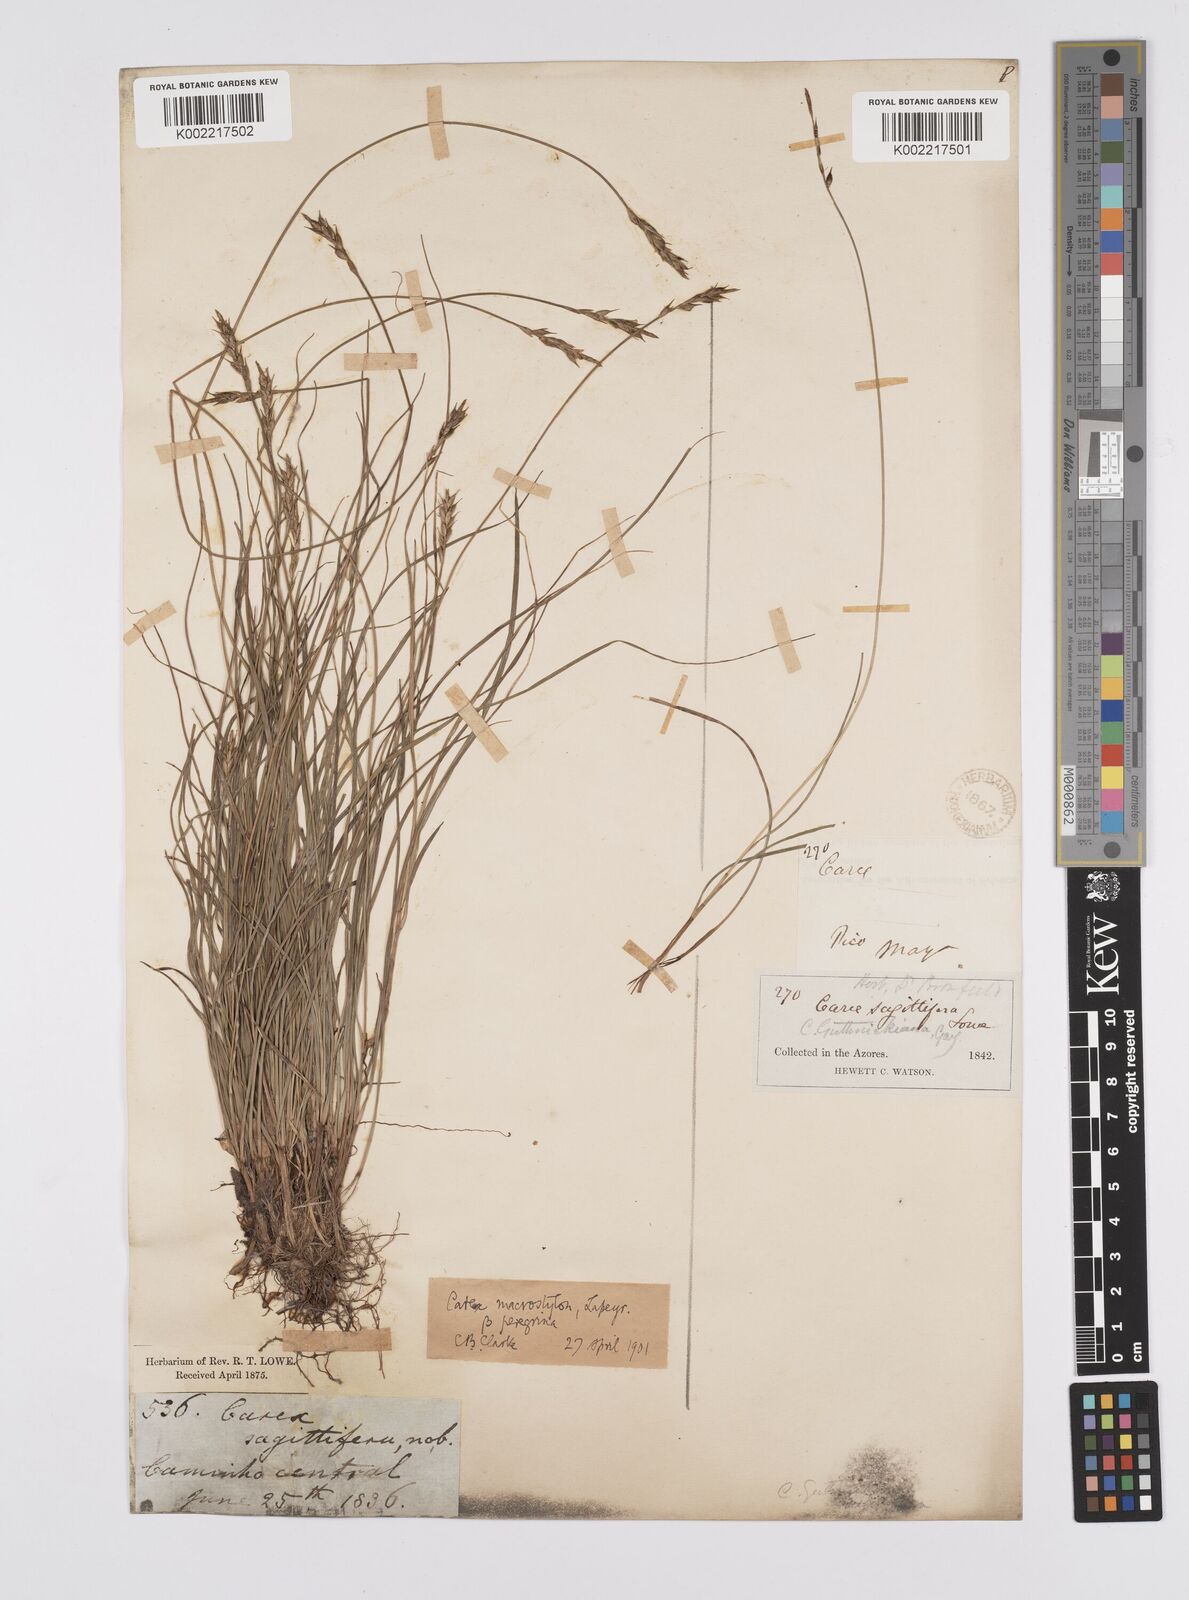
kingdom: Plantae
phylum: Tracheophyta
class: Liliopsida
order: Poales
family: Cyperaceae
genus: Carex
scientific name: Carex peregrina
